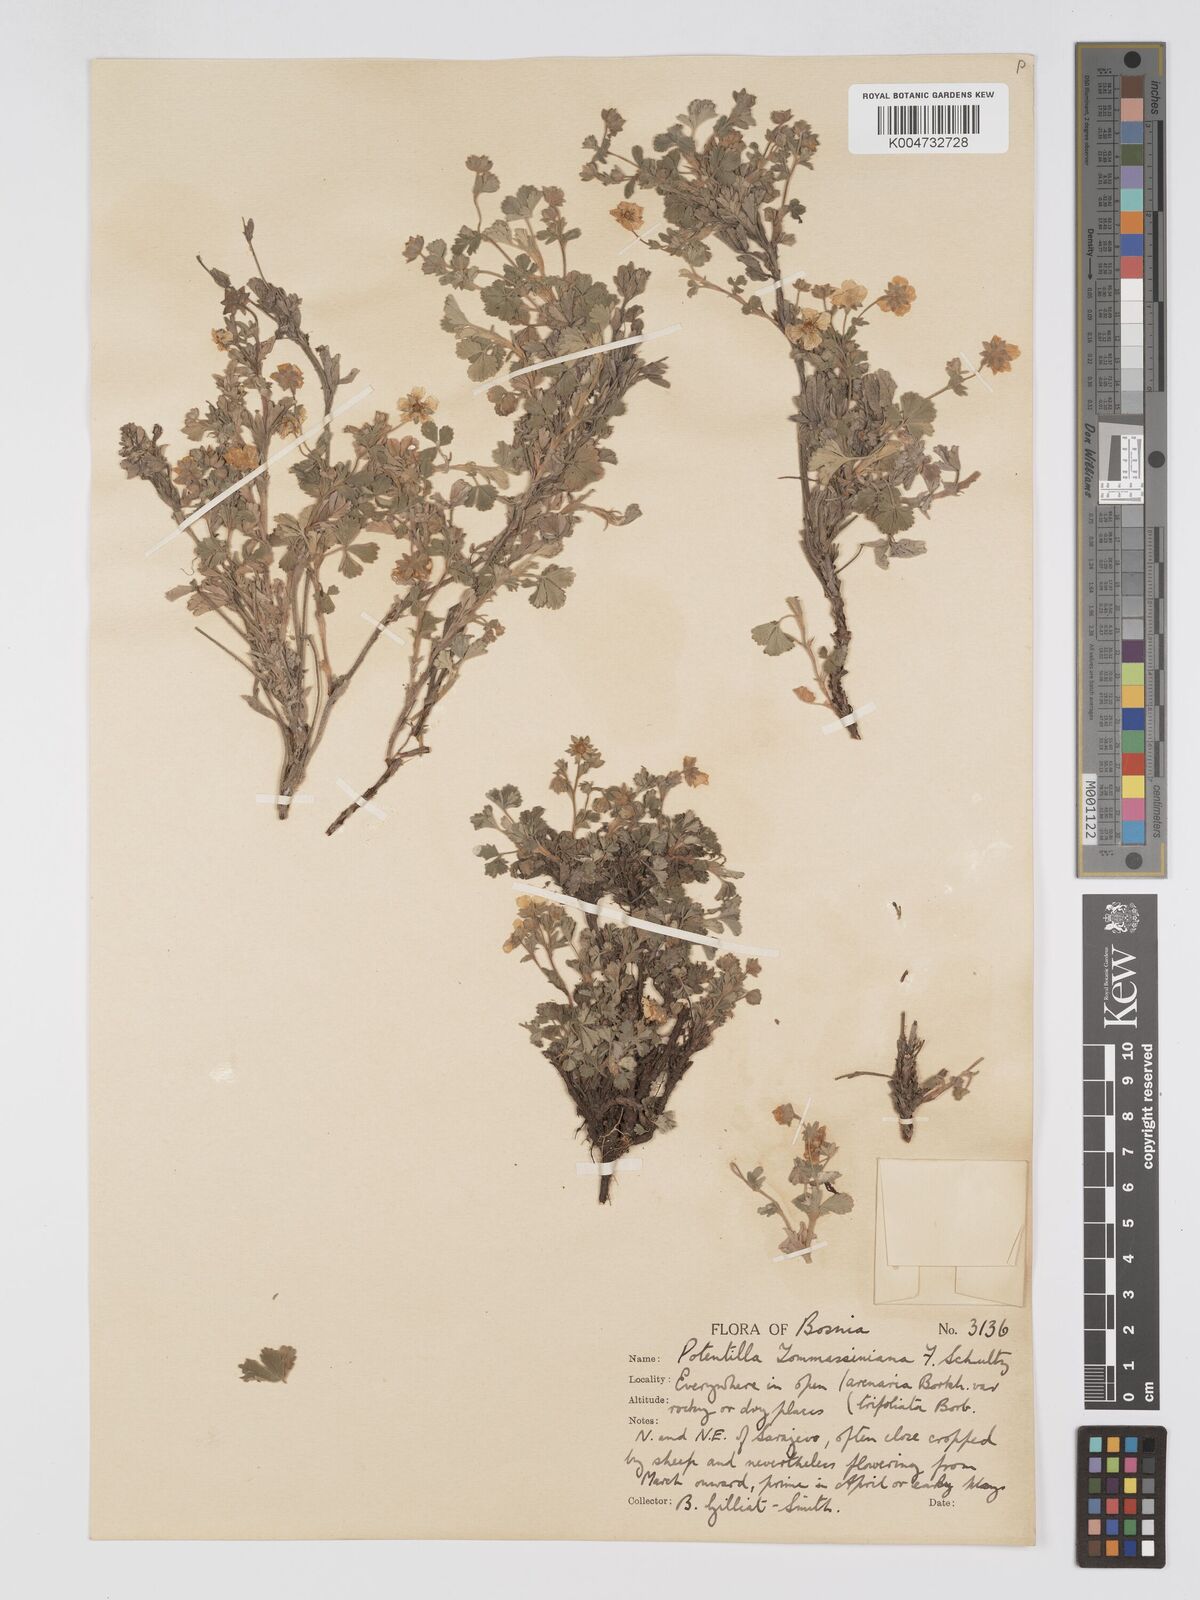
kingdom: Plantae
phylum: Tracheophyta
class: Magnoliopsida
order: Rosales
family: Rosaceae
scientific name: Rosaceae
